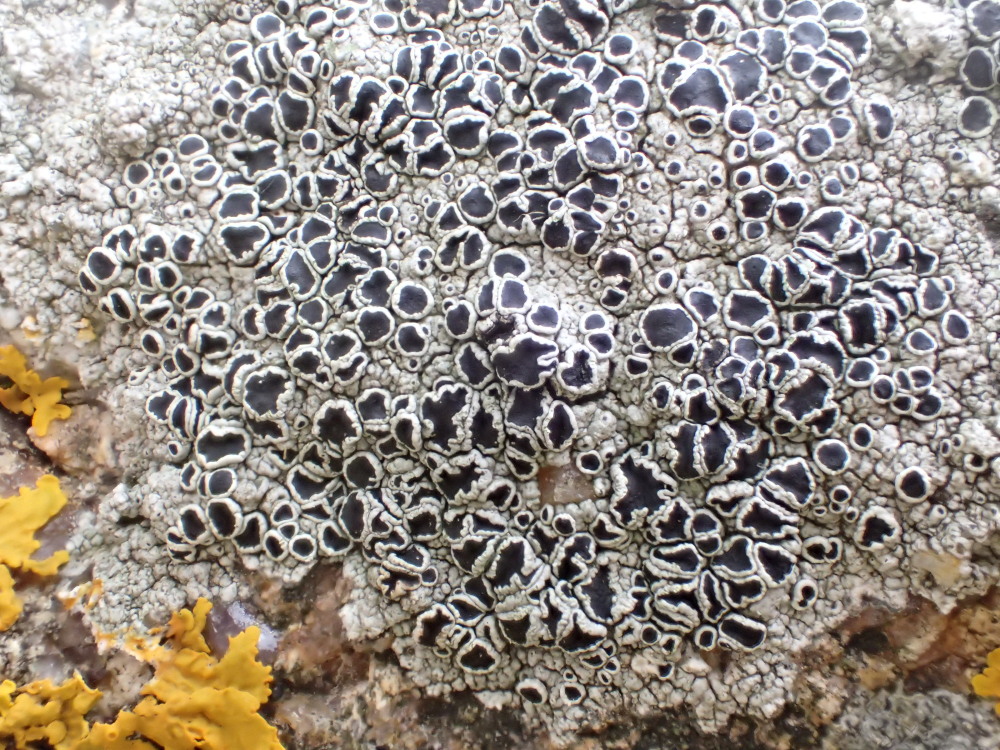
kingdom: Fungi
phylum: Ascomycota
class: Lecanoromycetes
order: Lecanorales
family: Tephromelataceae
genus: Tephromela
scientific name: Tephromela atra
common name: sortfrugtet kantskivelav
